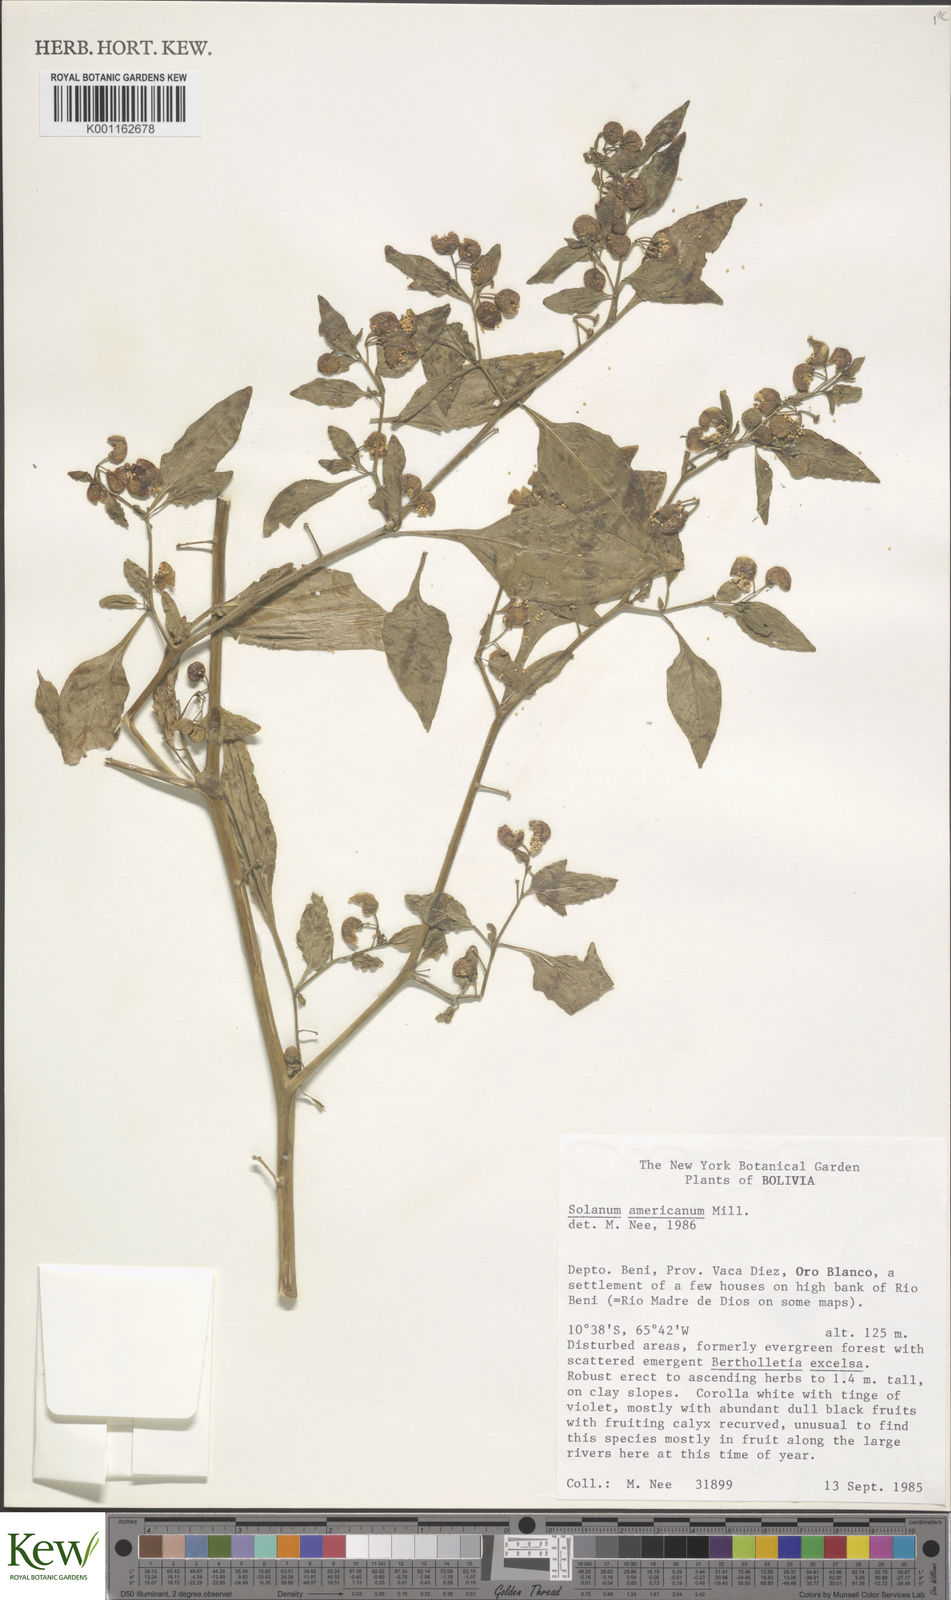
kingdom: Plantae
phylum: Tracheophyta
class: Magnoliopsida
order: Solanales
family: Solanaceae
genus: Solanum
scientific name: Solanum americanum
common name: American black nightshade
